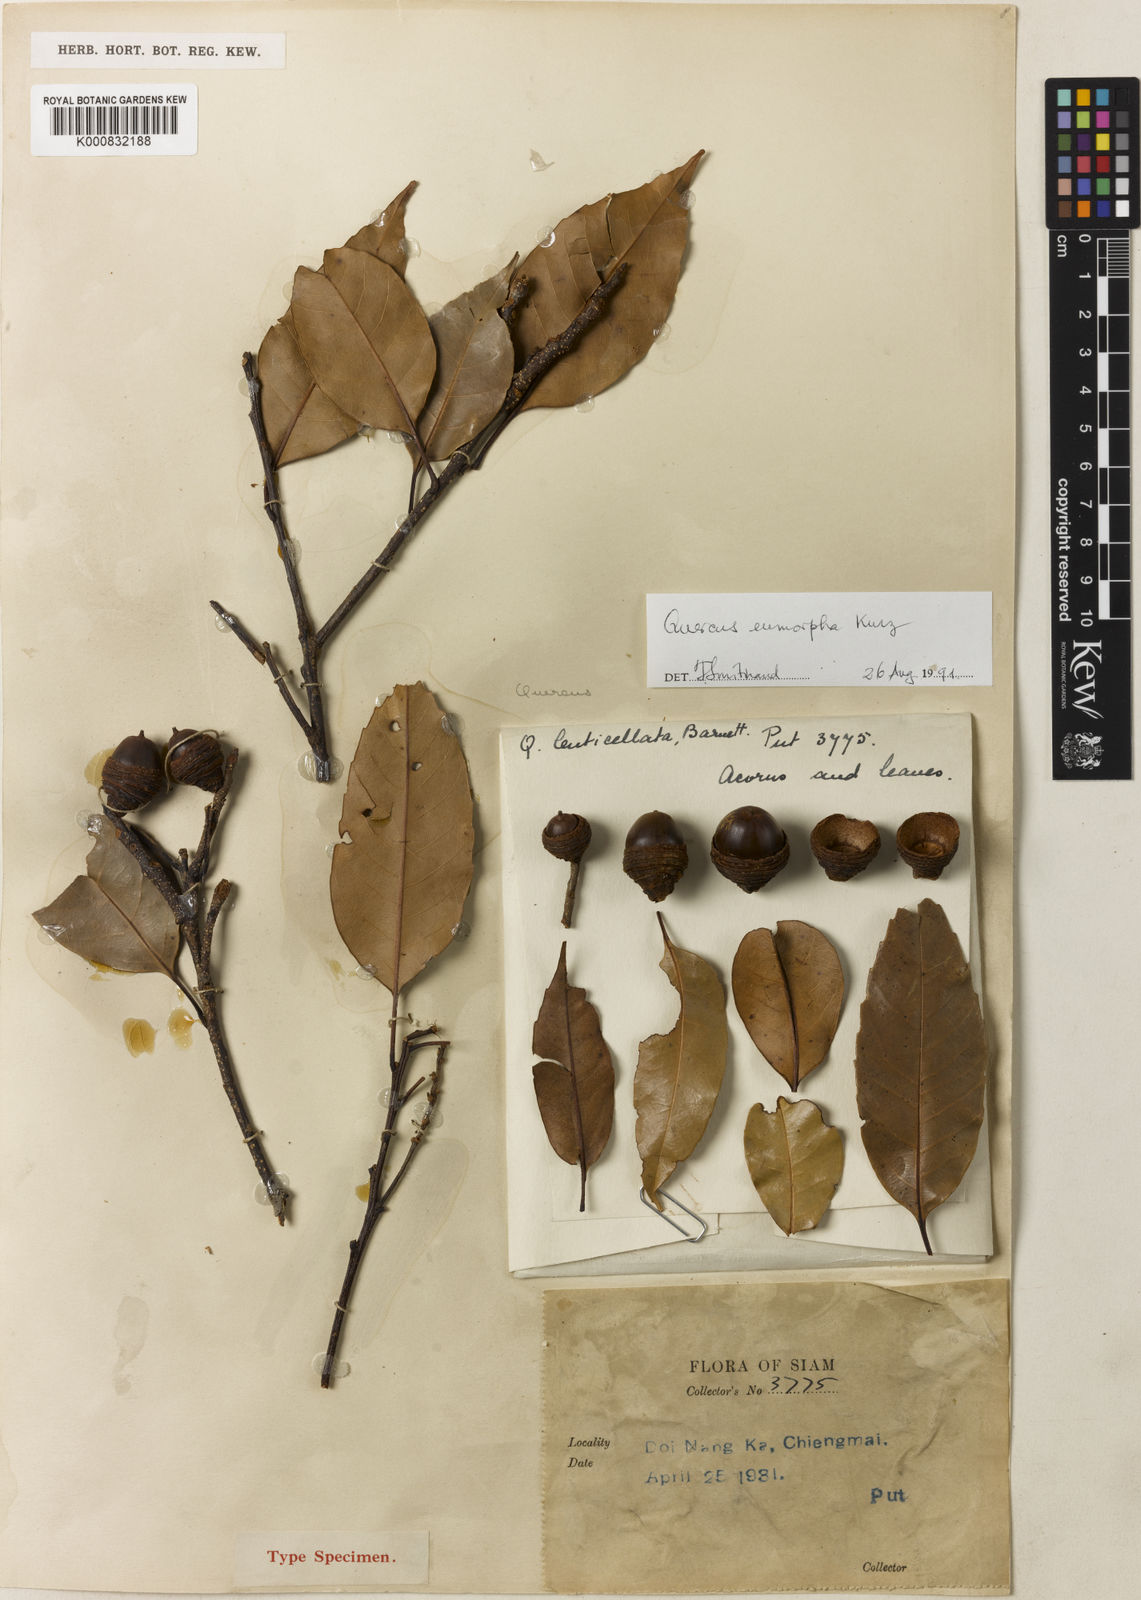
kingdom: Plantae
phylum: Tracheophyta
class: Magnoliopsida
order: Fagales
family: Fagaceae
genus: Quercus
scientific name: Quercus eumorpha
